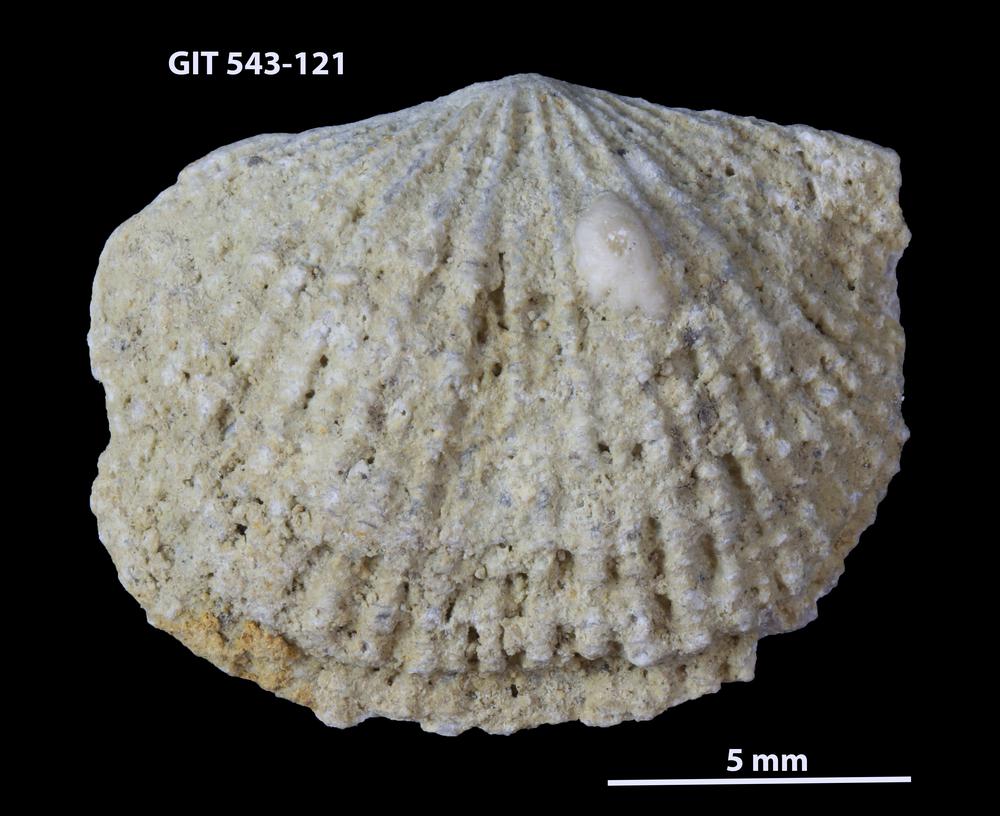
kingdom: Animalia
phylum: Brachiopoda
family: Gonambonitidae
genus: Estlandia
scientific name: Estlandia Orthisina marginata
